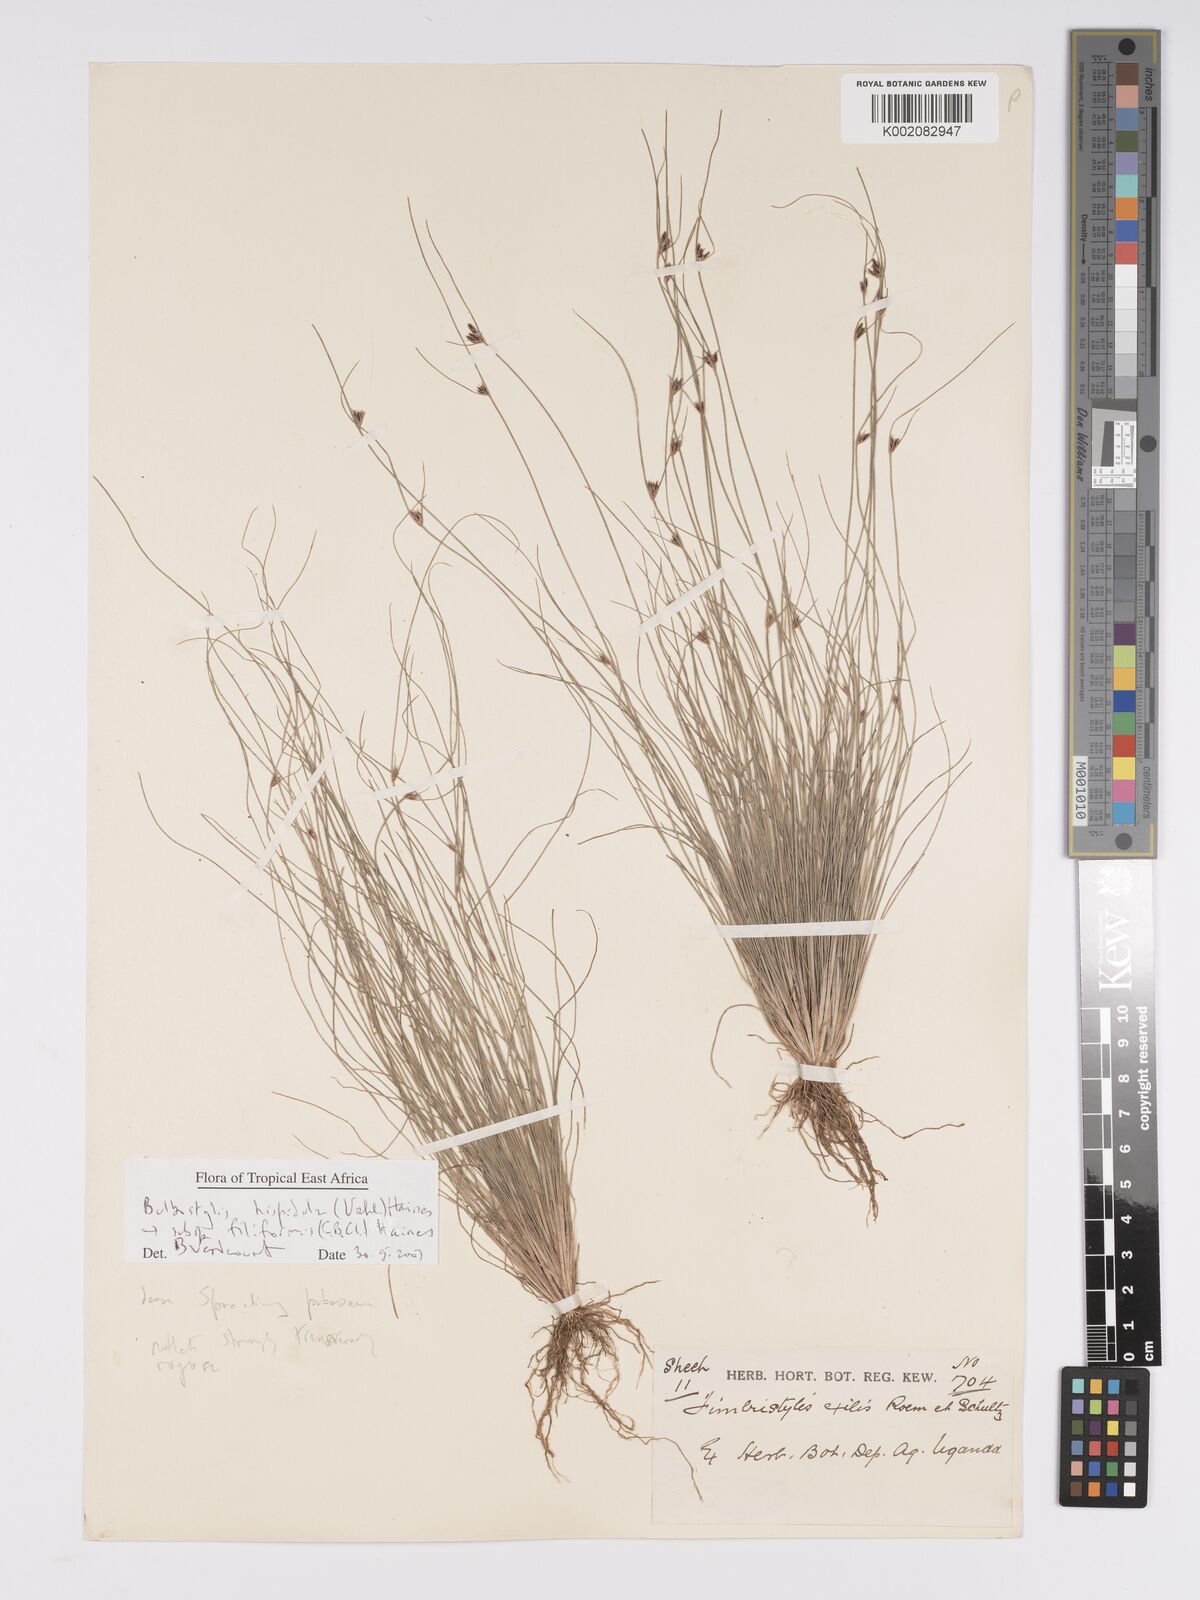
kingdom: Plantae
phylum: Tracheophyta
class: Liliopsida
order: Poales
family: Cyperaceae
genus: Bulbostylis
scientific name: Bulbostylis hispidula
